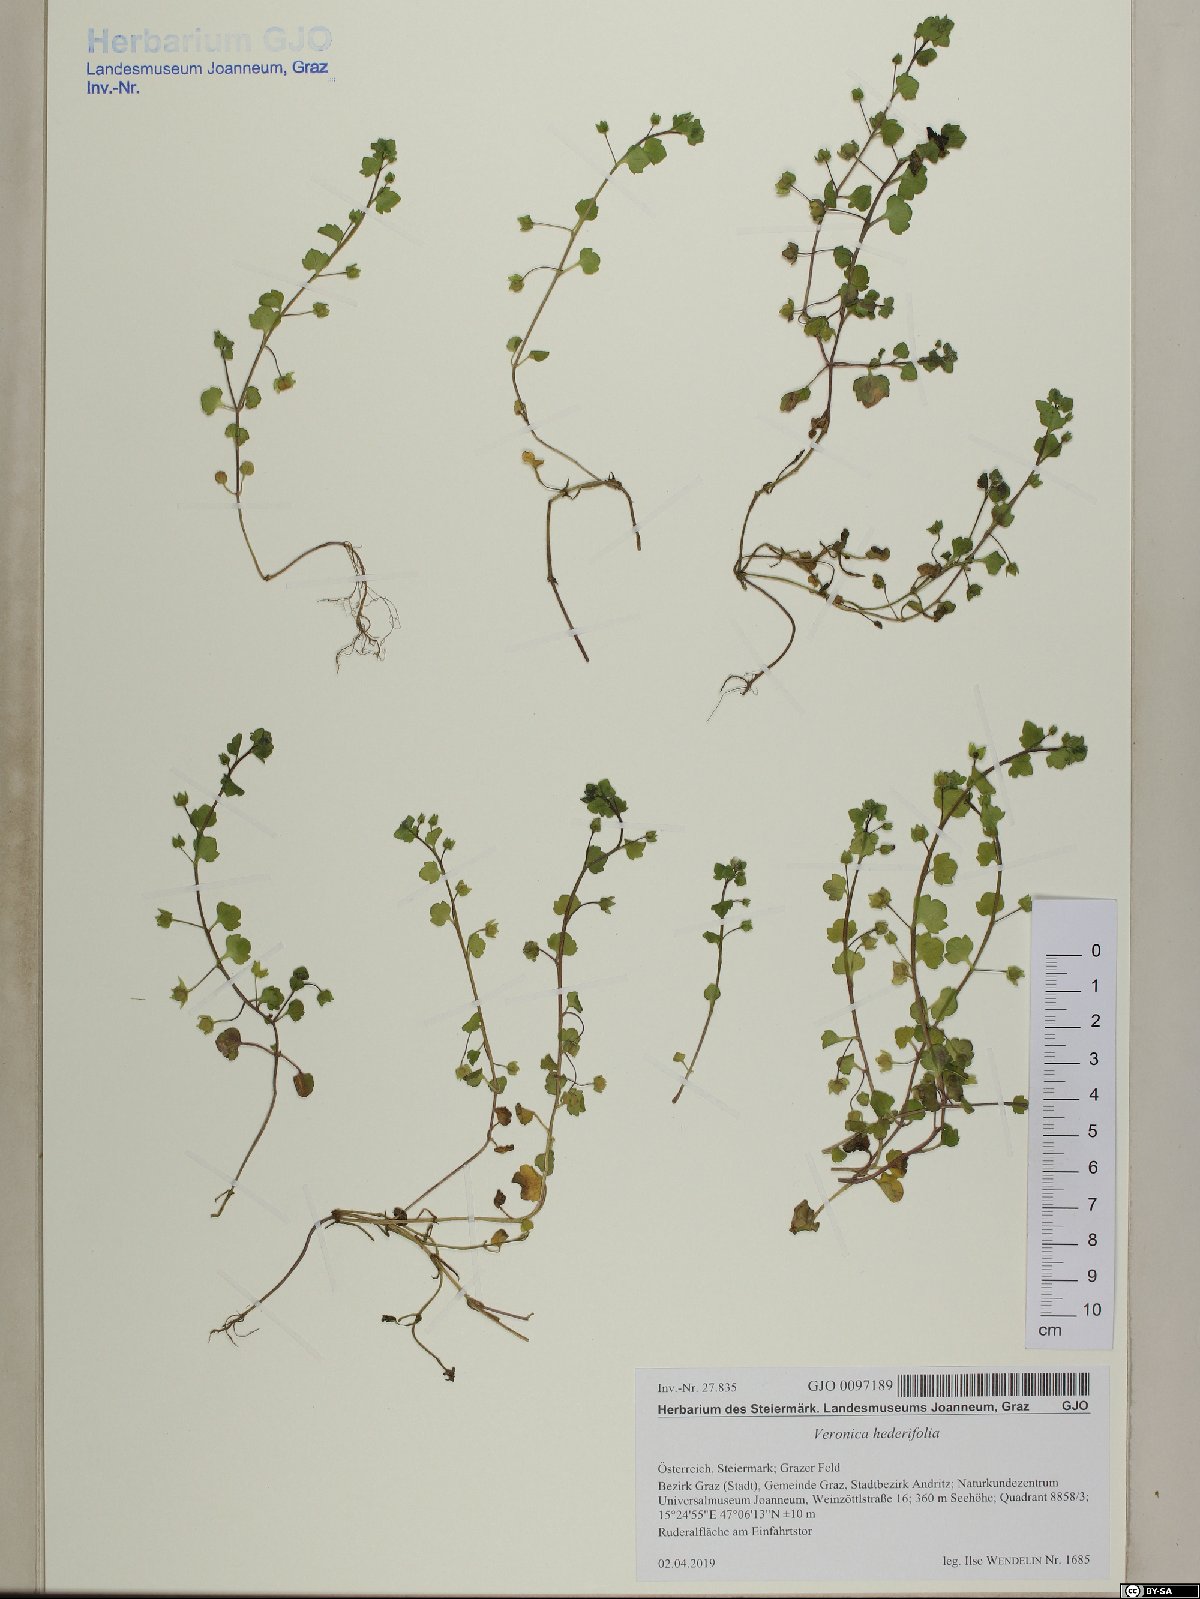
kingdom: Plantae
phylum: Tracheophyta
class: Magnoliopsida
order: Lamiales
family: Plantaginaceae
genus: Veronica
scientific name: Veronica hederifolia
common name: Ivy-leaved speedwell
